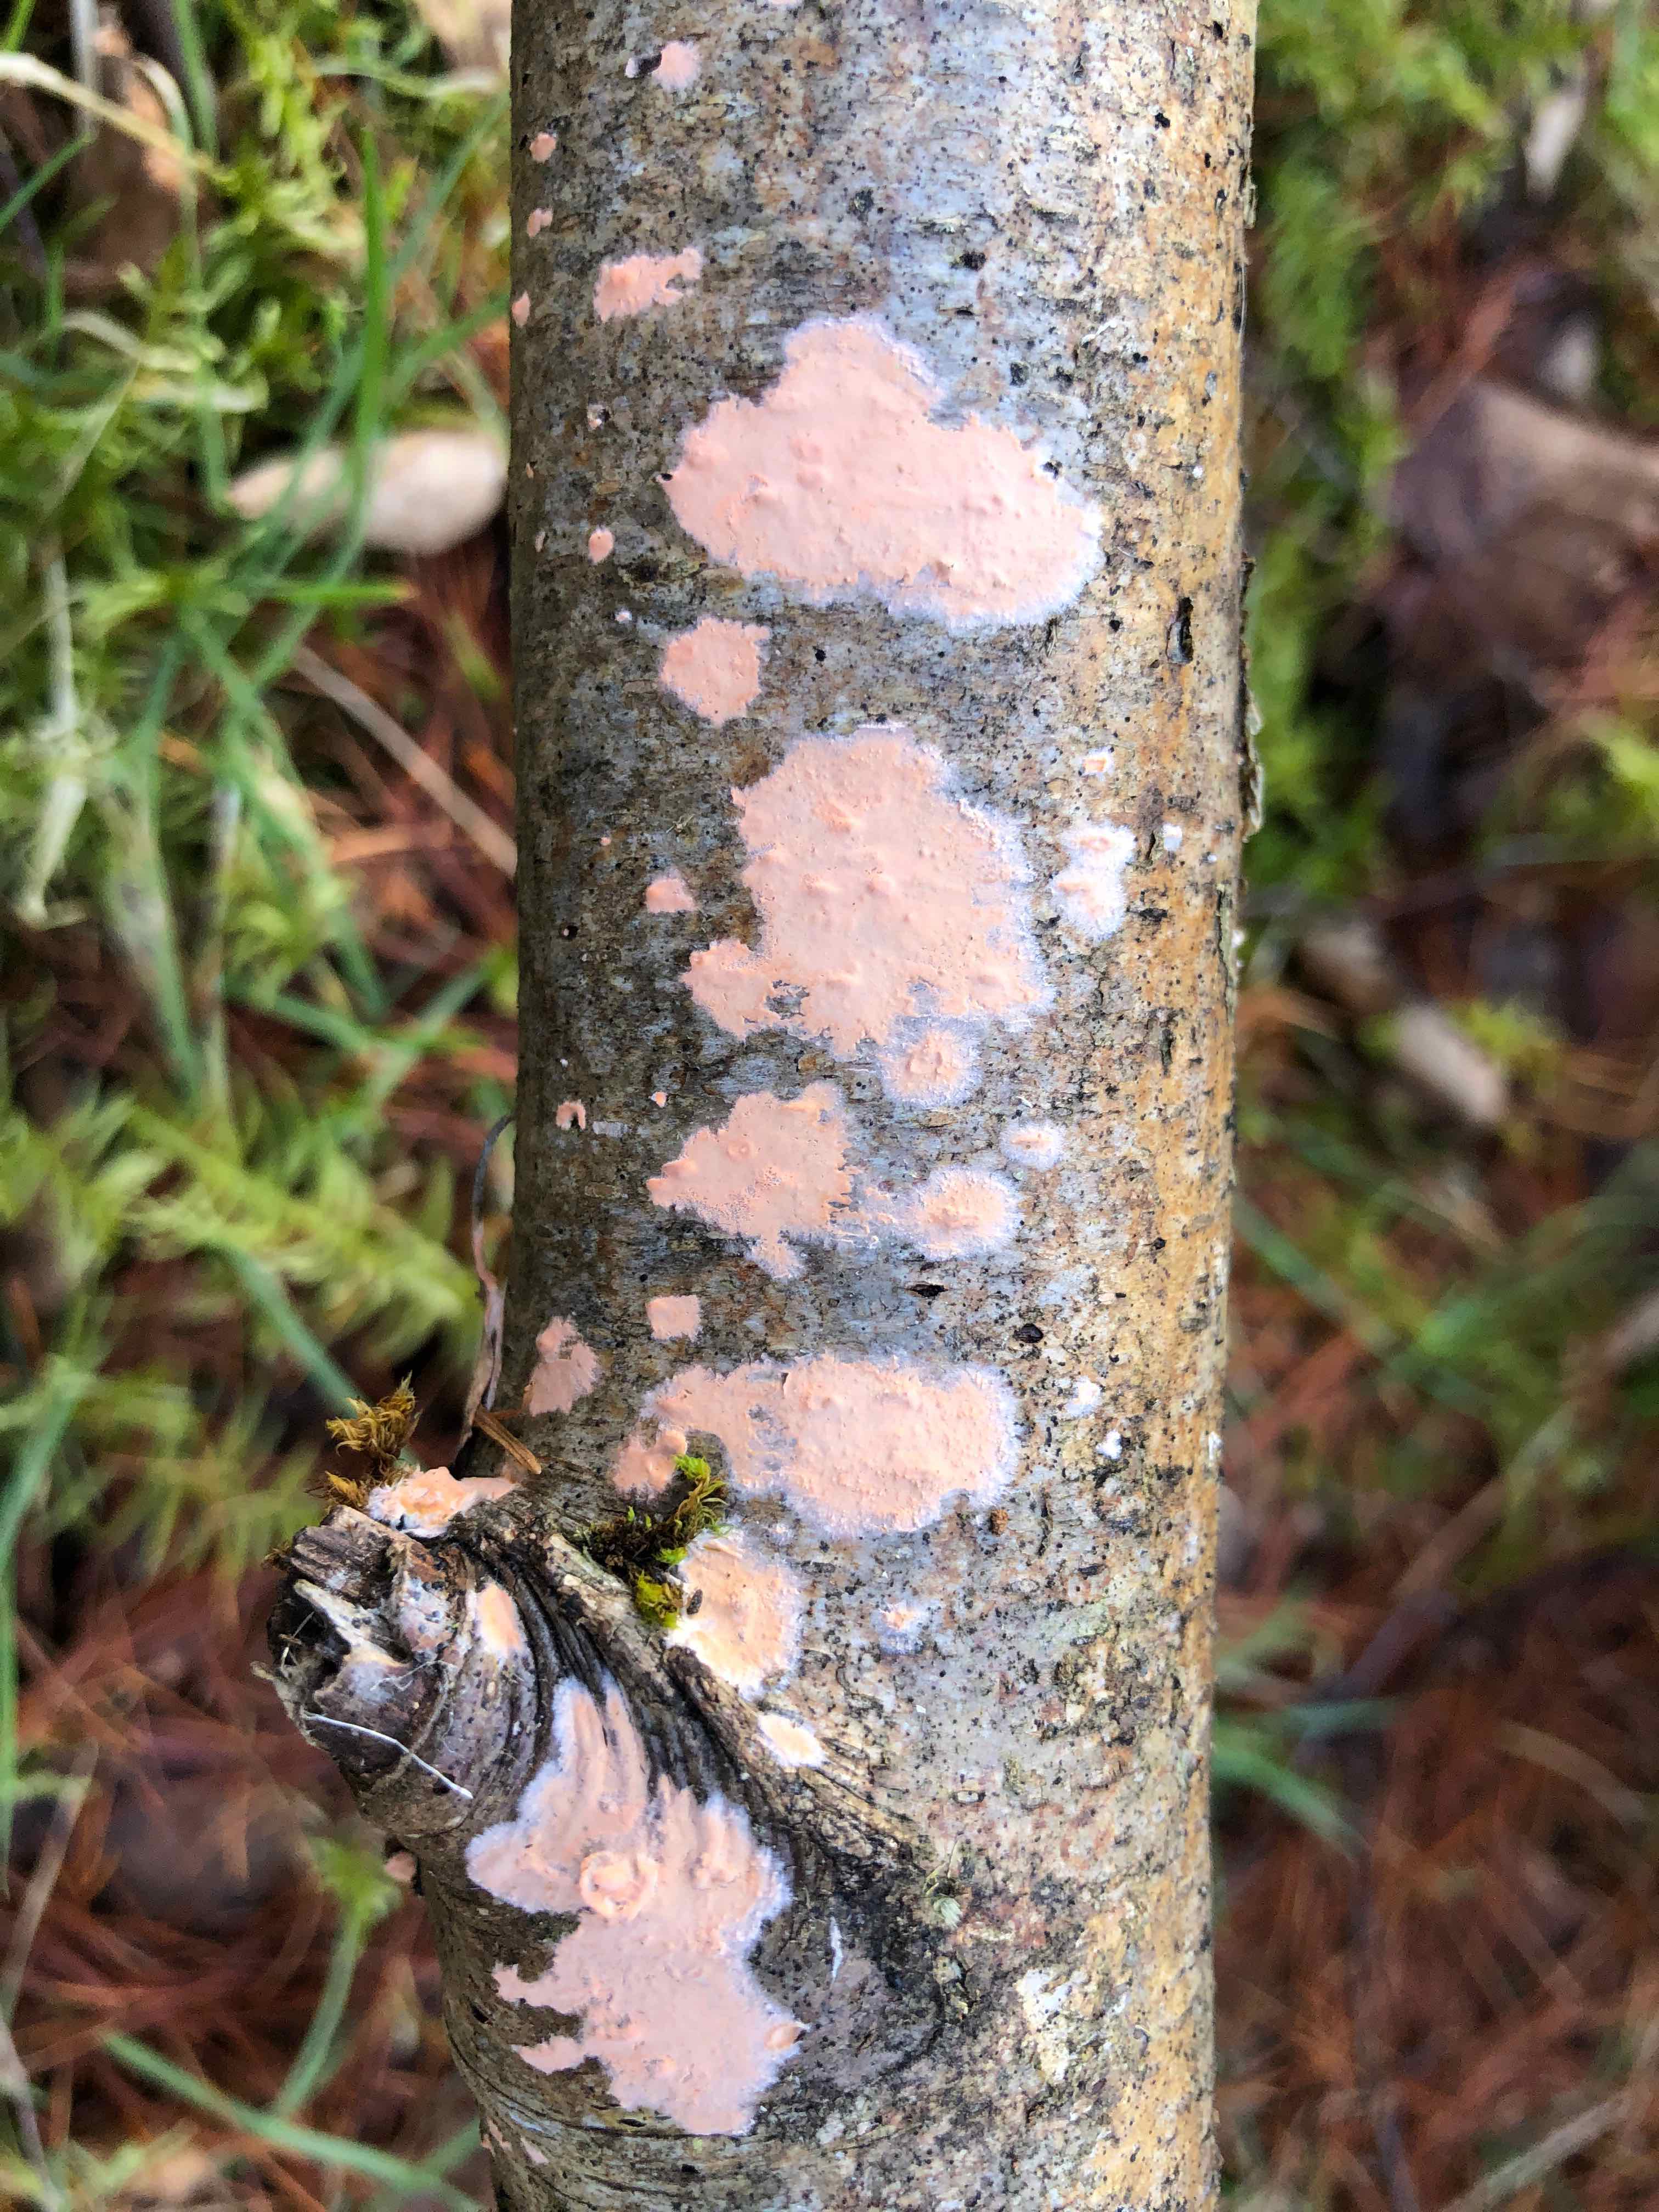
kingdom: Fungi
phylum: Basidiomycota
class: Agaricomycetes
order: Russulales
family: Peniophoraceae
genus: Peniophora
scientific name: Peniophora incarnata
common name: laksefarvet voksskind
